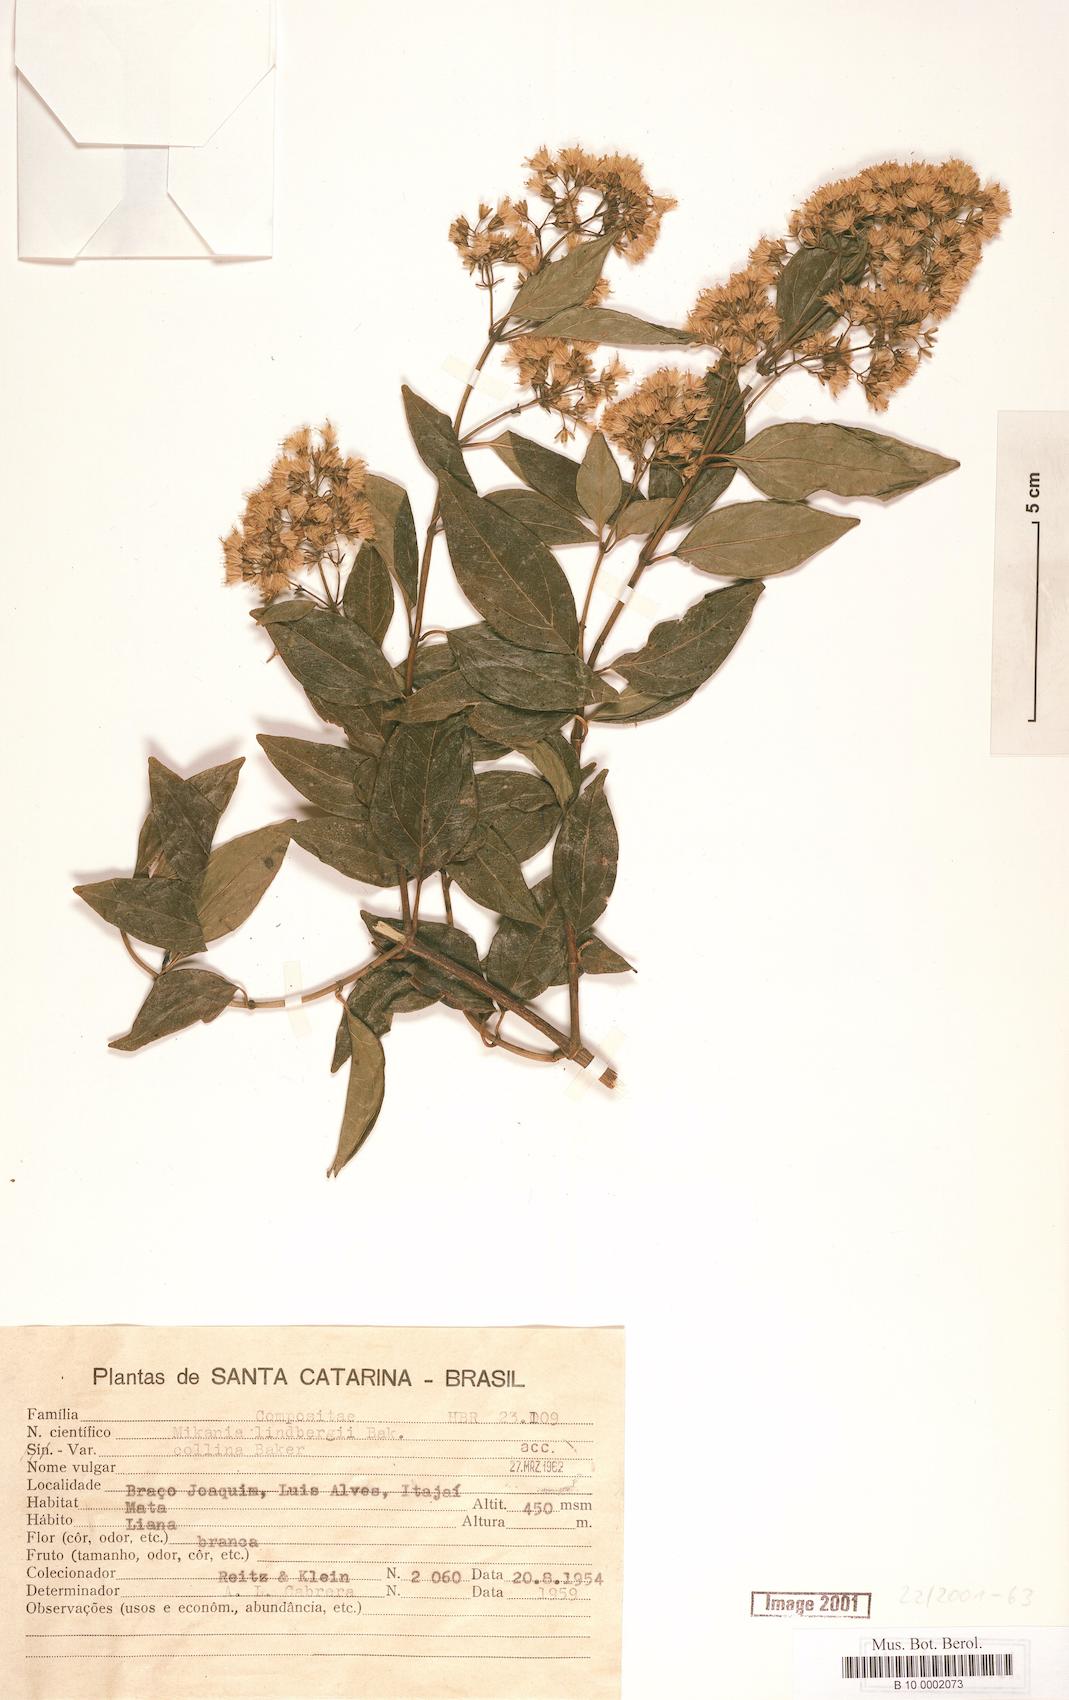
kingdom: Plantae
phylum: Tracheophyta
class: Magnoliopsida
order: Asterales
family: Asteraceae
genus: Mikania
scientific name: Mikania lindbergii
